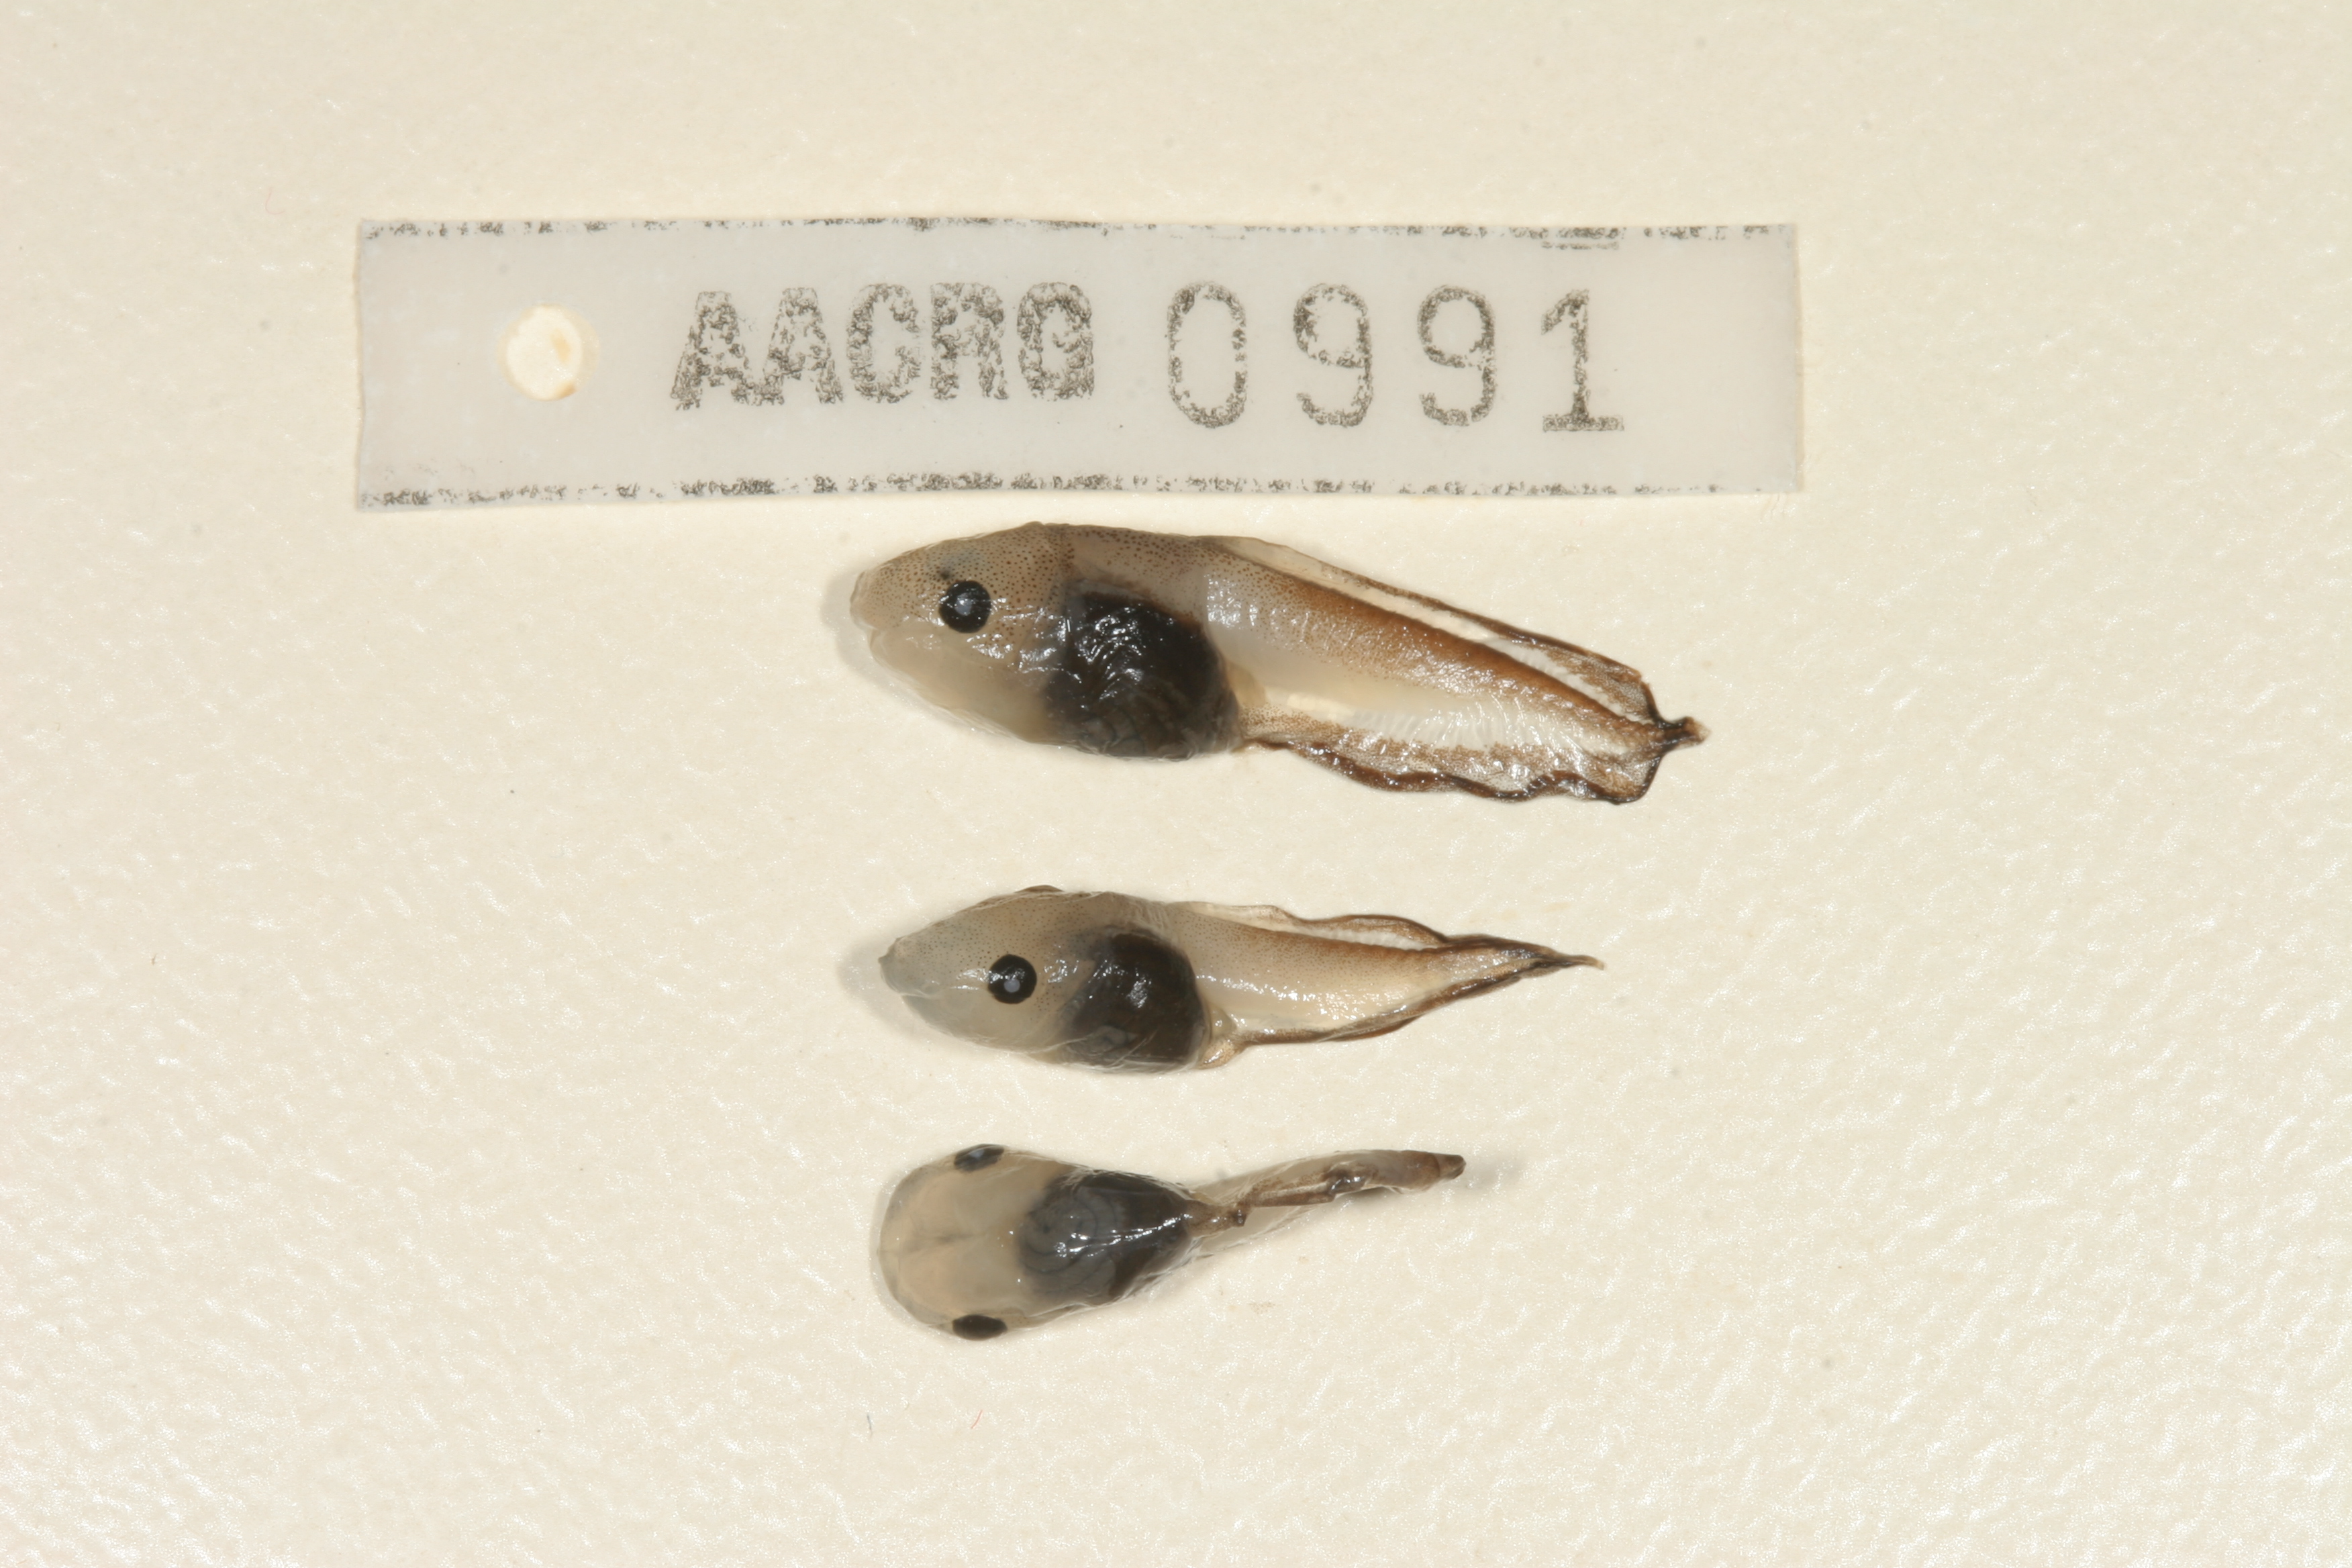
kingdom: Animalia
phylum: Chordata
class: Amphibia
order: Anura
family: Microhylidae
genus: Phrynomantis
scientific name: Phrynomantis bifasciatus
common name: Banded rubber frog
